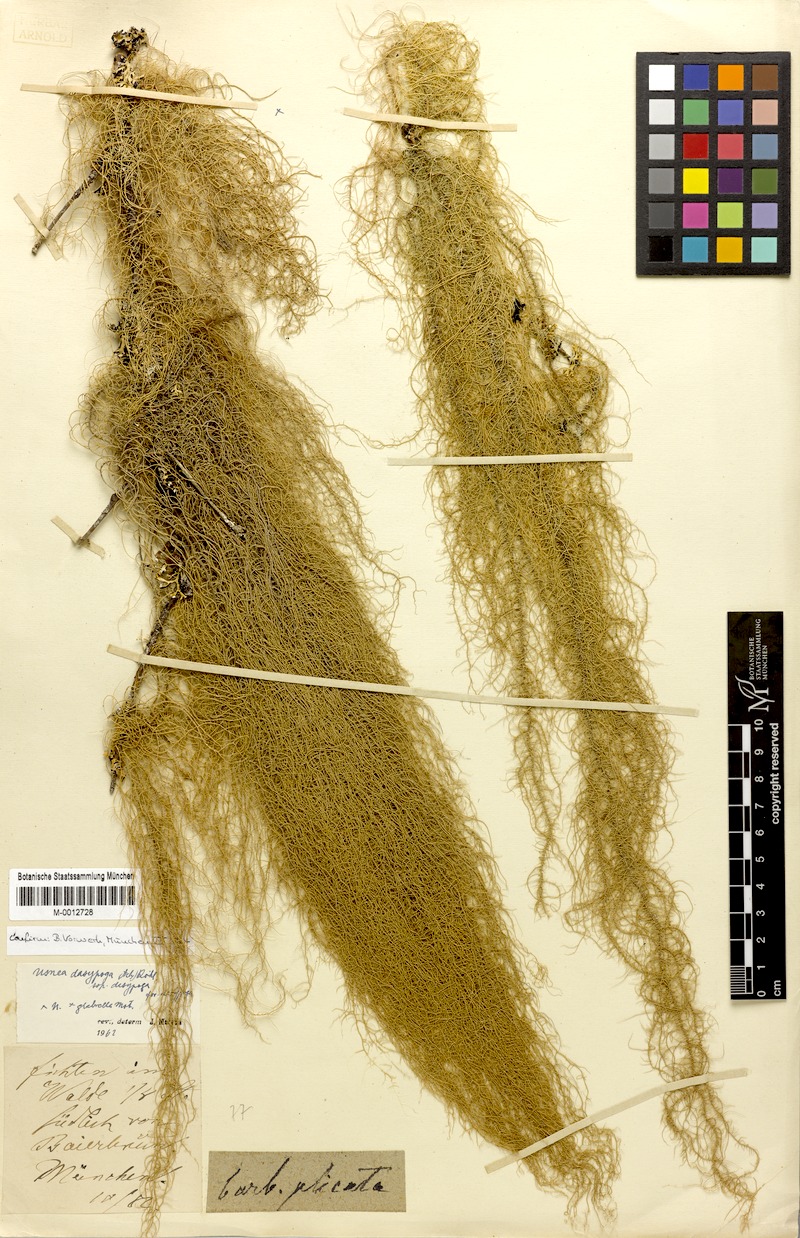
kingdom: Fungi
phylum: Ascomycota
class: Lecanoromycetes
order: Lecanorales
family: Parmeliaceae
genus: Usnea
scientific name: Usnea dasopoga
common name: Fishbone beard lichen
